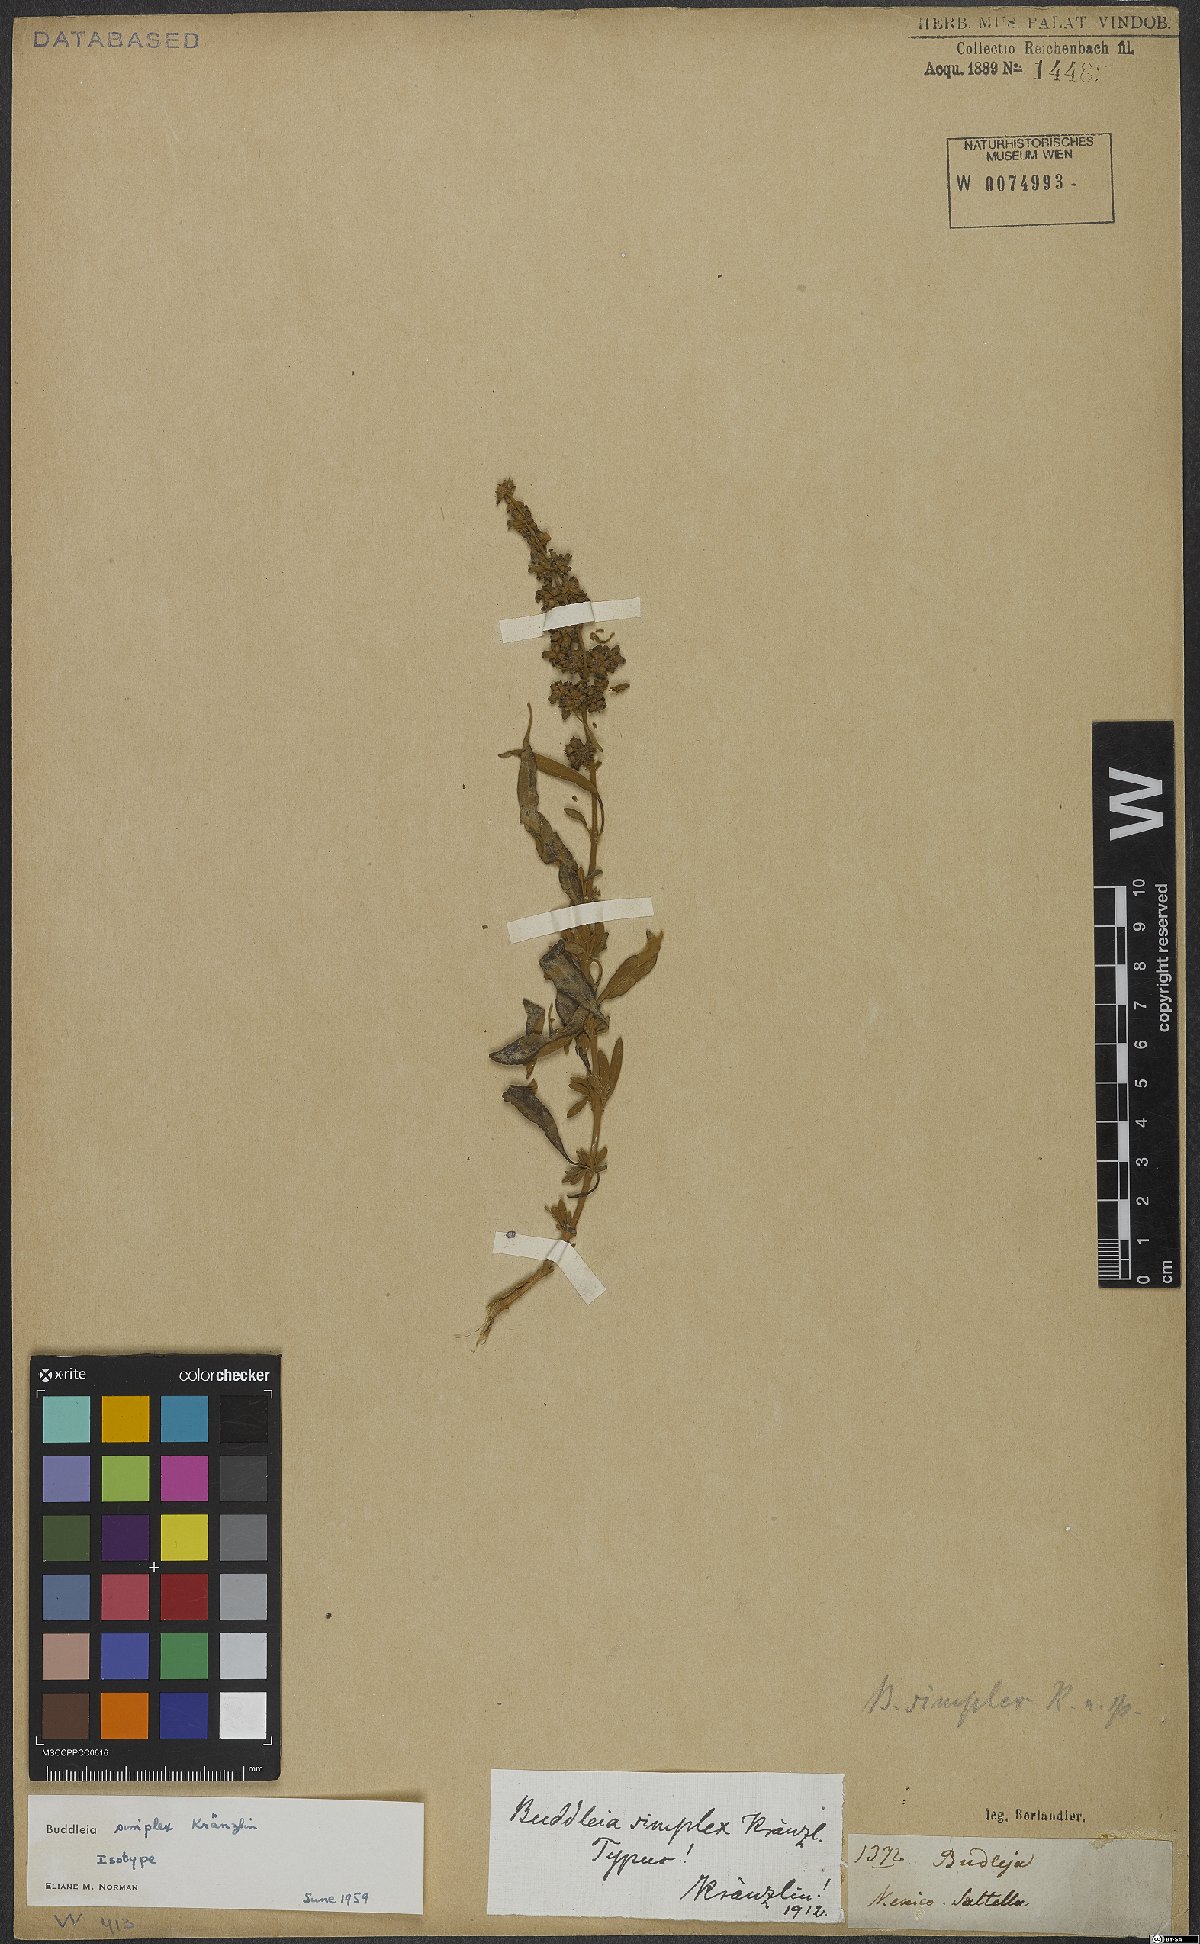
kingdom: Plantae
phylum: Tracheophyta
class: Magnoliopsida
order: Lamiales
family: Scrophulariaceae
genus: Buddleja
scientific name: Buddleja marrubiifolia
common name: Woolly butterfly-bush
